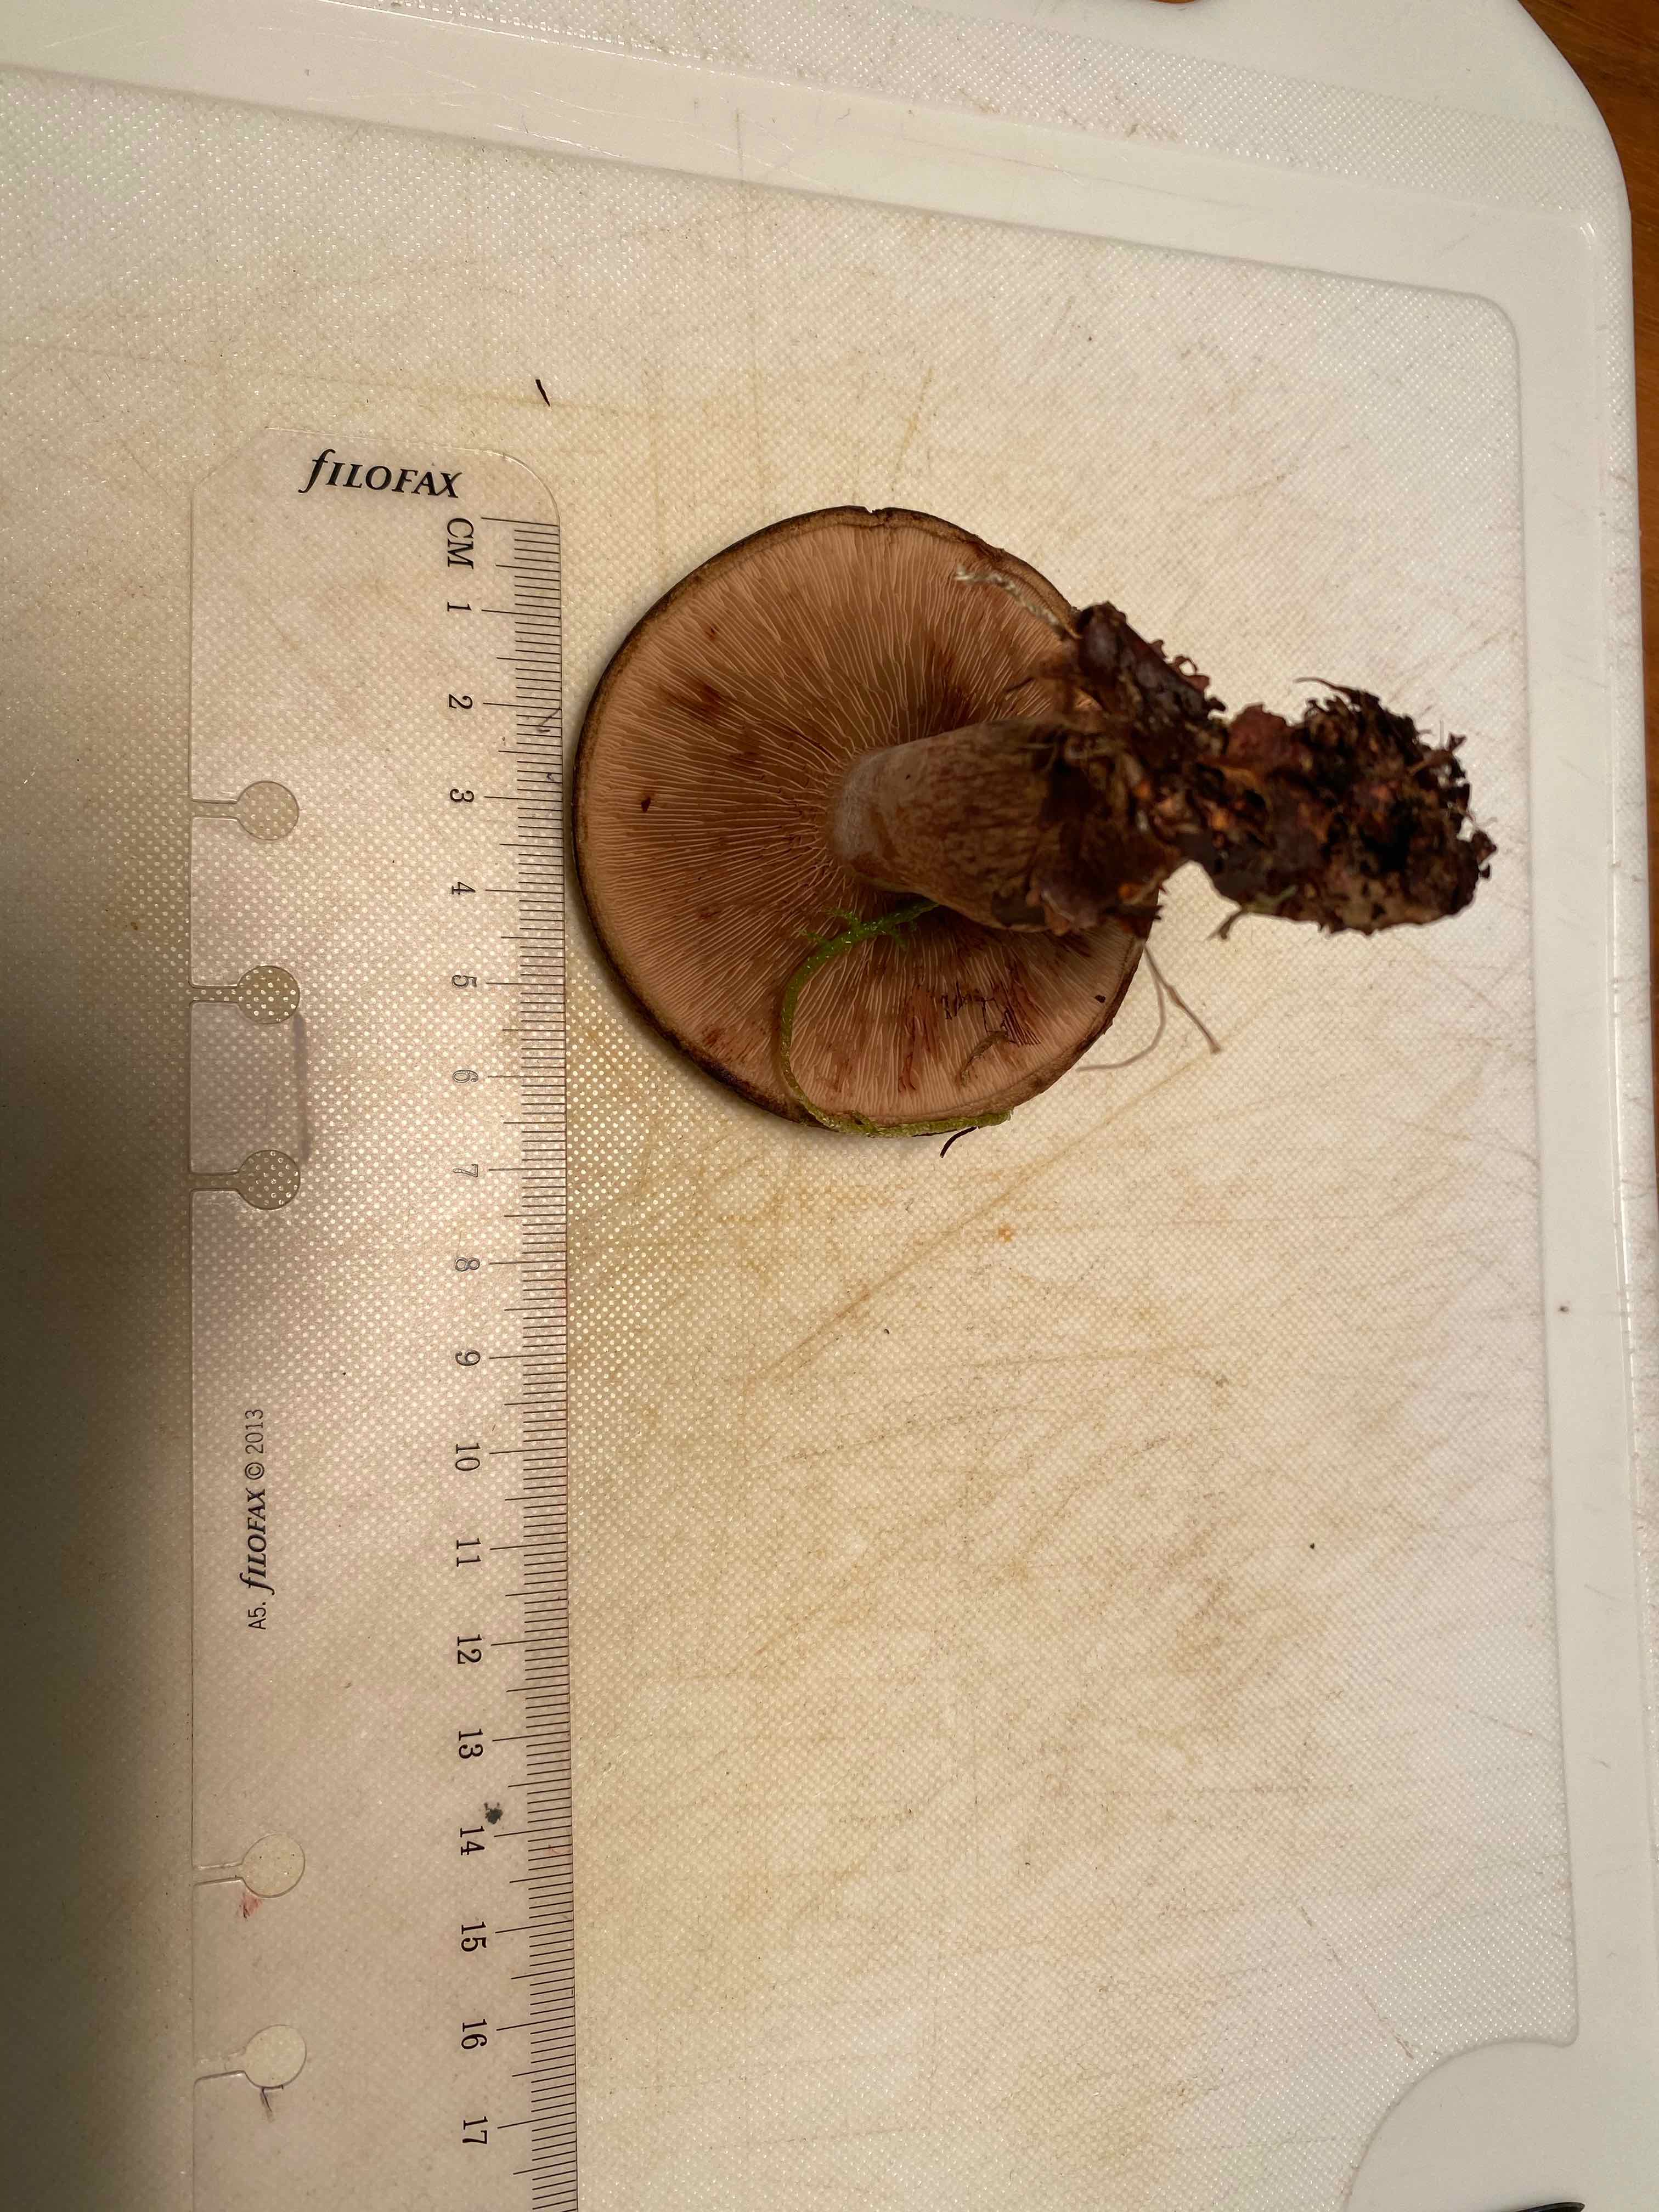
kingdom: Fungi
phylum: Basidiomycota
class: Agaricomycetes
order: Boletales
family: Paxillaceae
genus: Paxillus
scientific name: Paxillus involutus
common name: almindelig netbladhat
